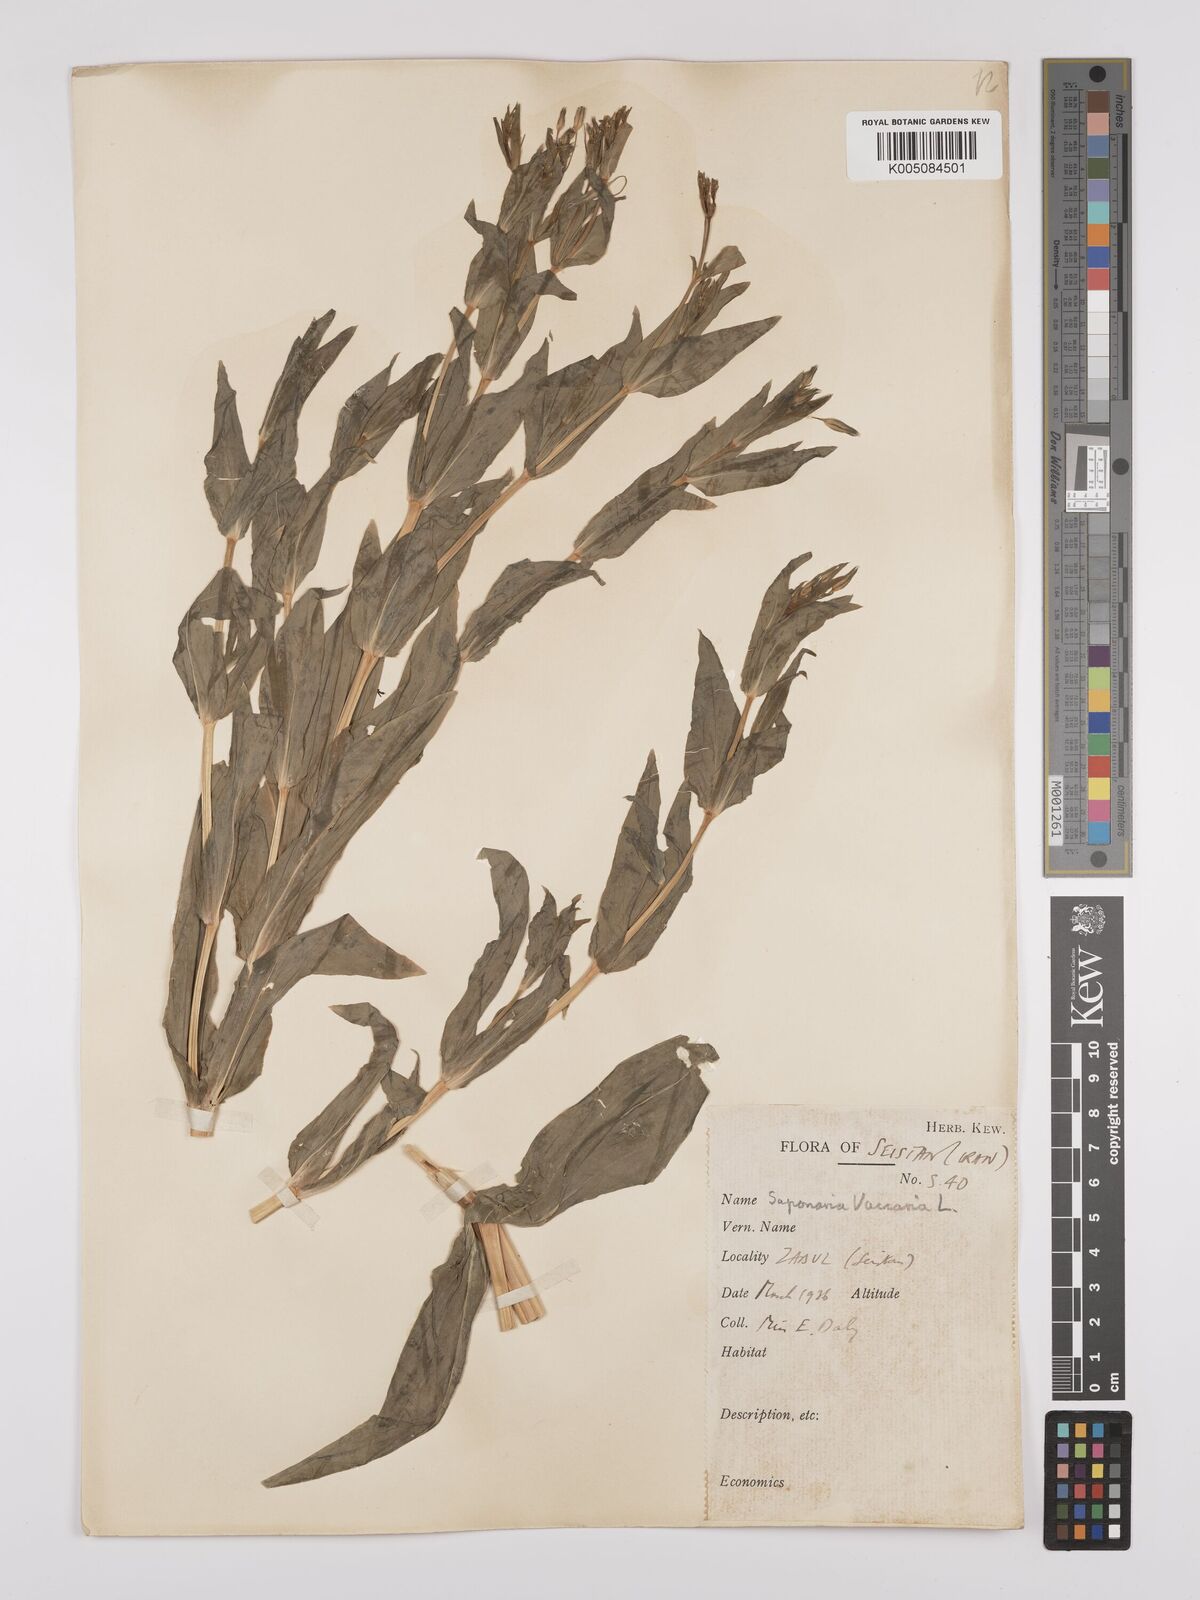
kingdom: Plantae
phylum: Tracheophyta
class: Magnoliopsida
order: Caryophyllales
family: Caryophyllaceae
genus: Gypsophila
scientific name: Gypsophila vaccaria
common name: Cow soapwort
